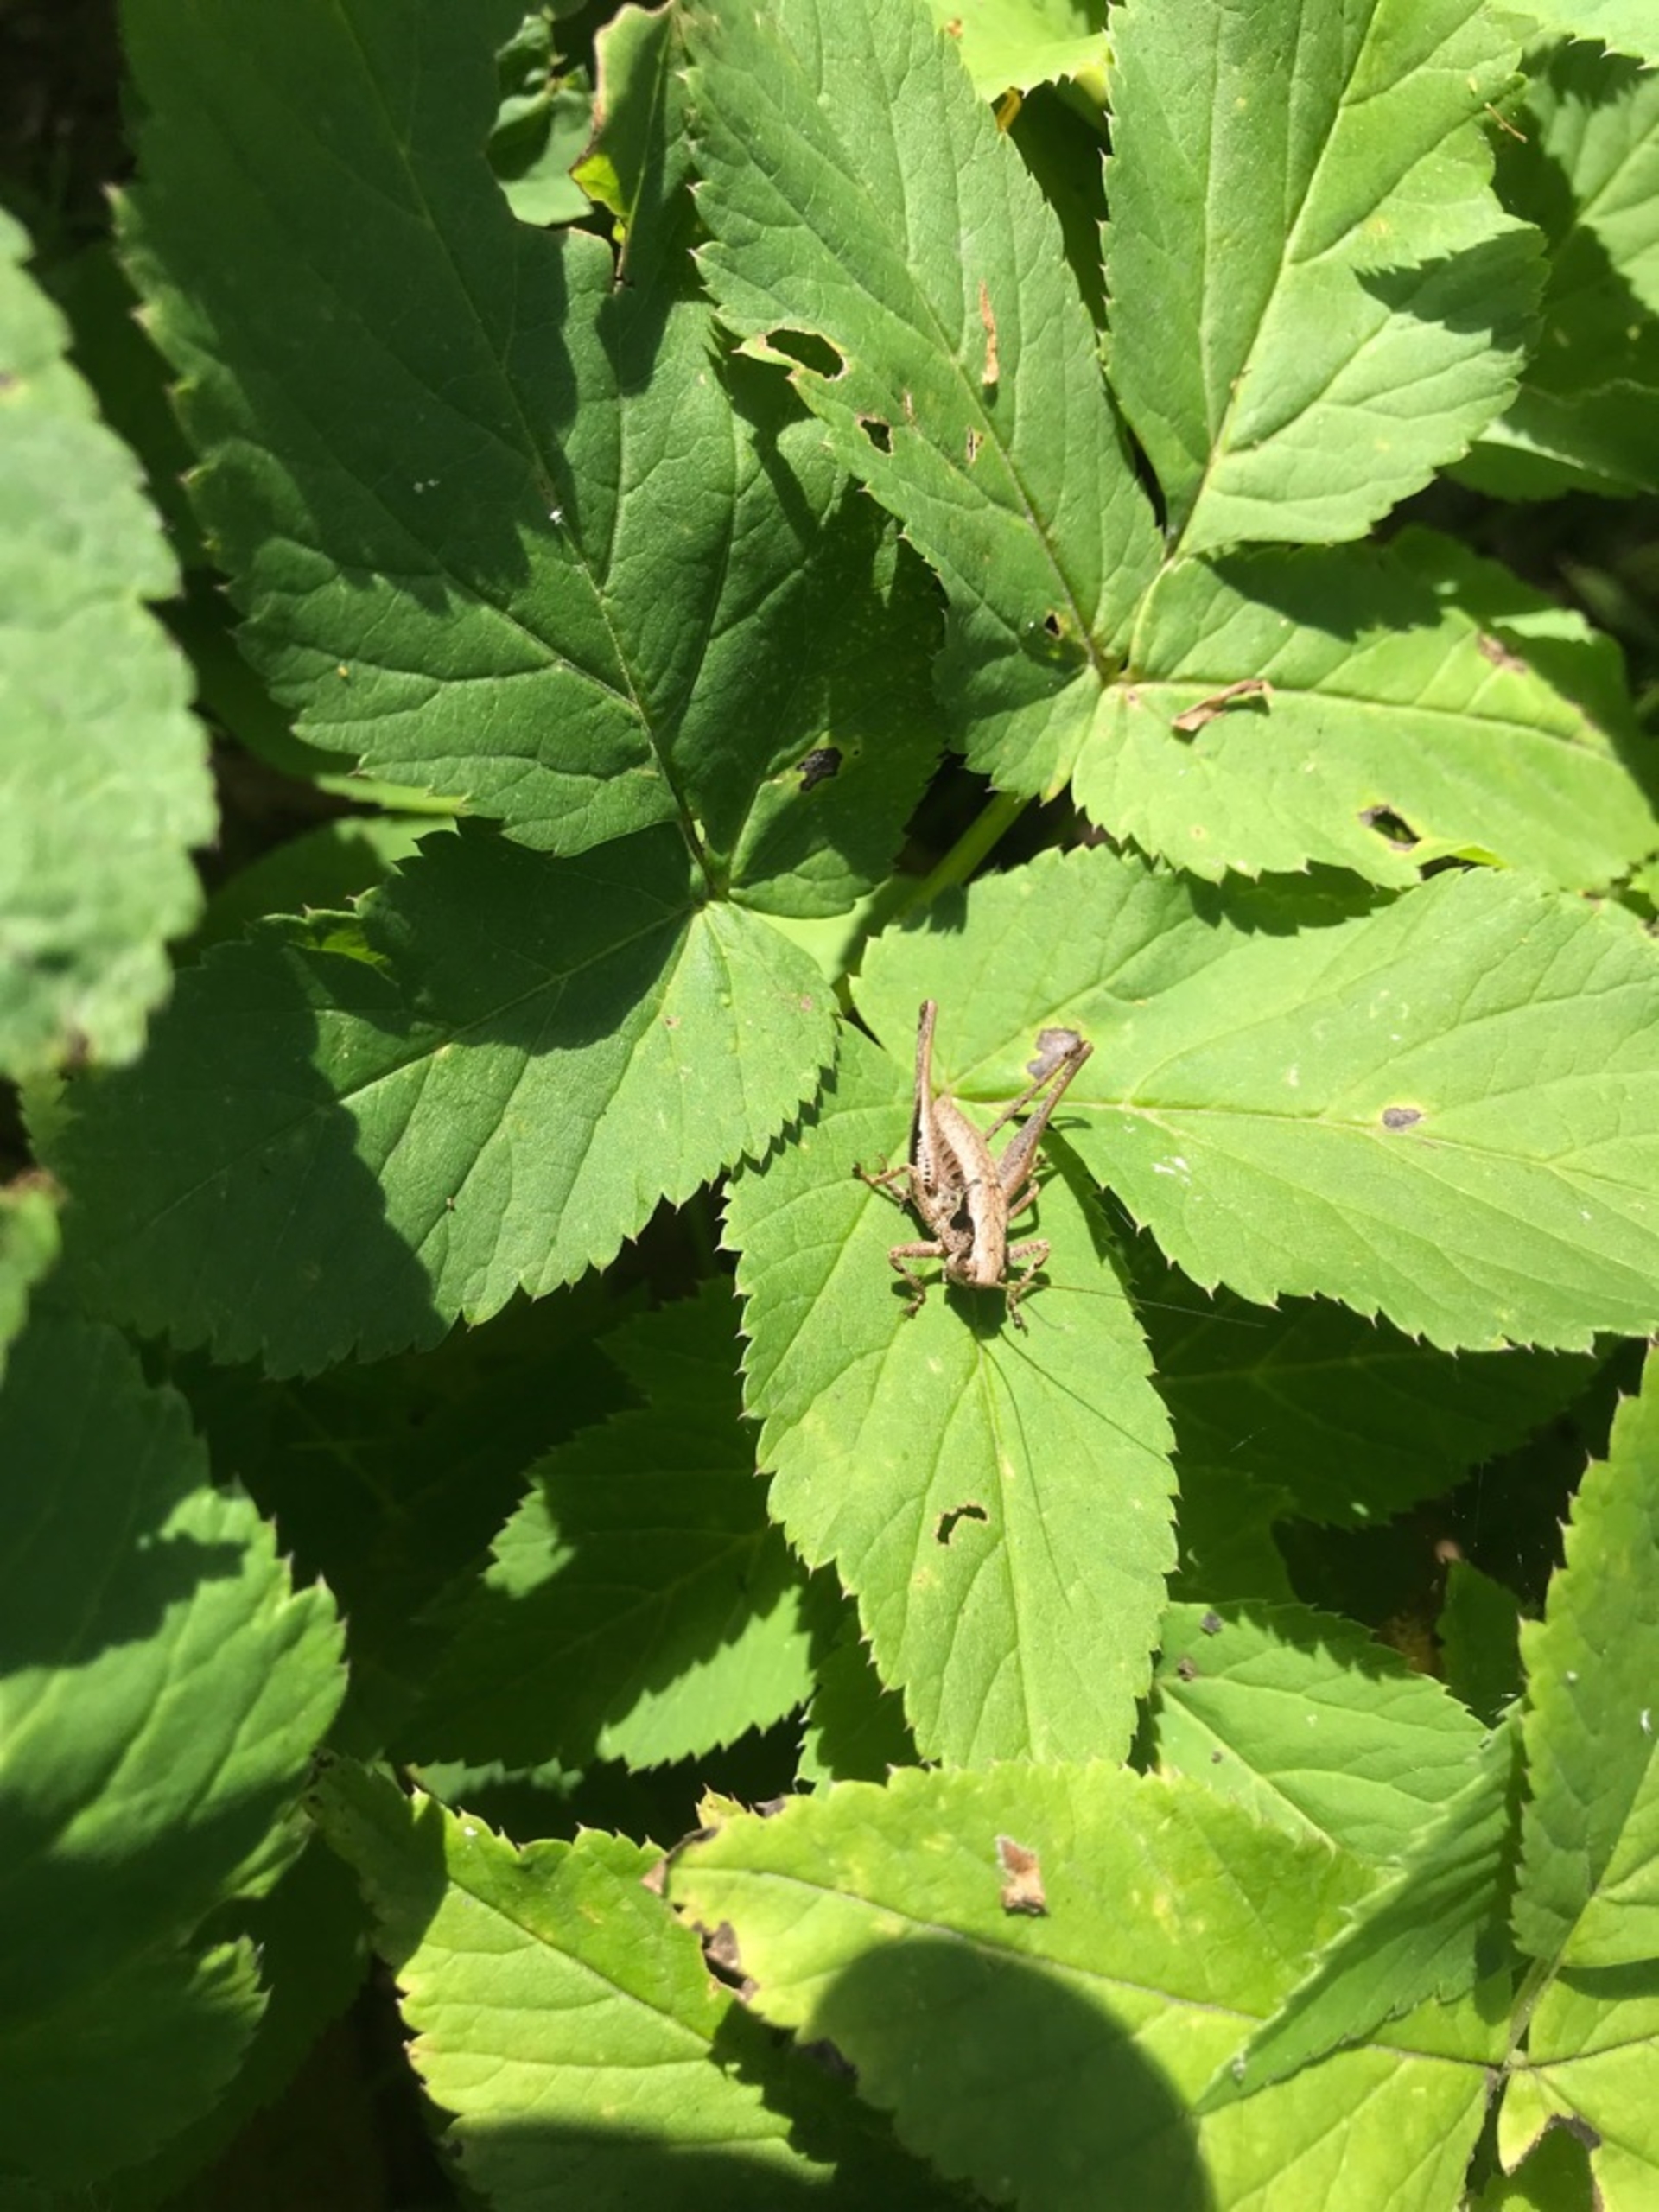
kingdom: Animalia
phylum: Arthropoda
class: Insecta
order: Orthoptera
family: Tettigoniidae
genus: Pholidoptera
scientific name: Pholidoptera griseoaptera
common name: Buskgræshoppe
